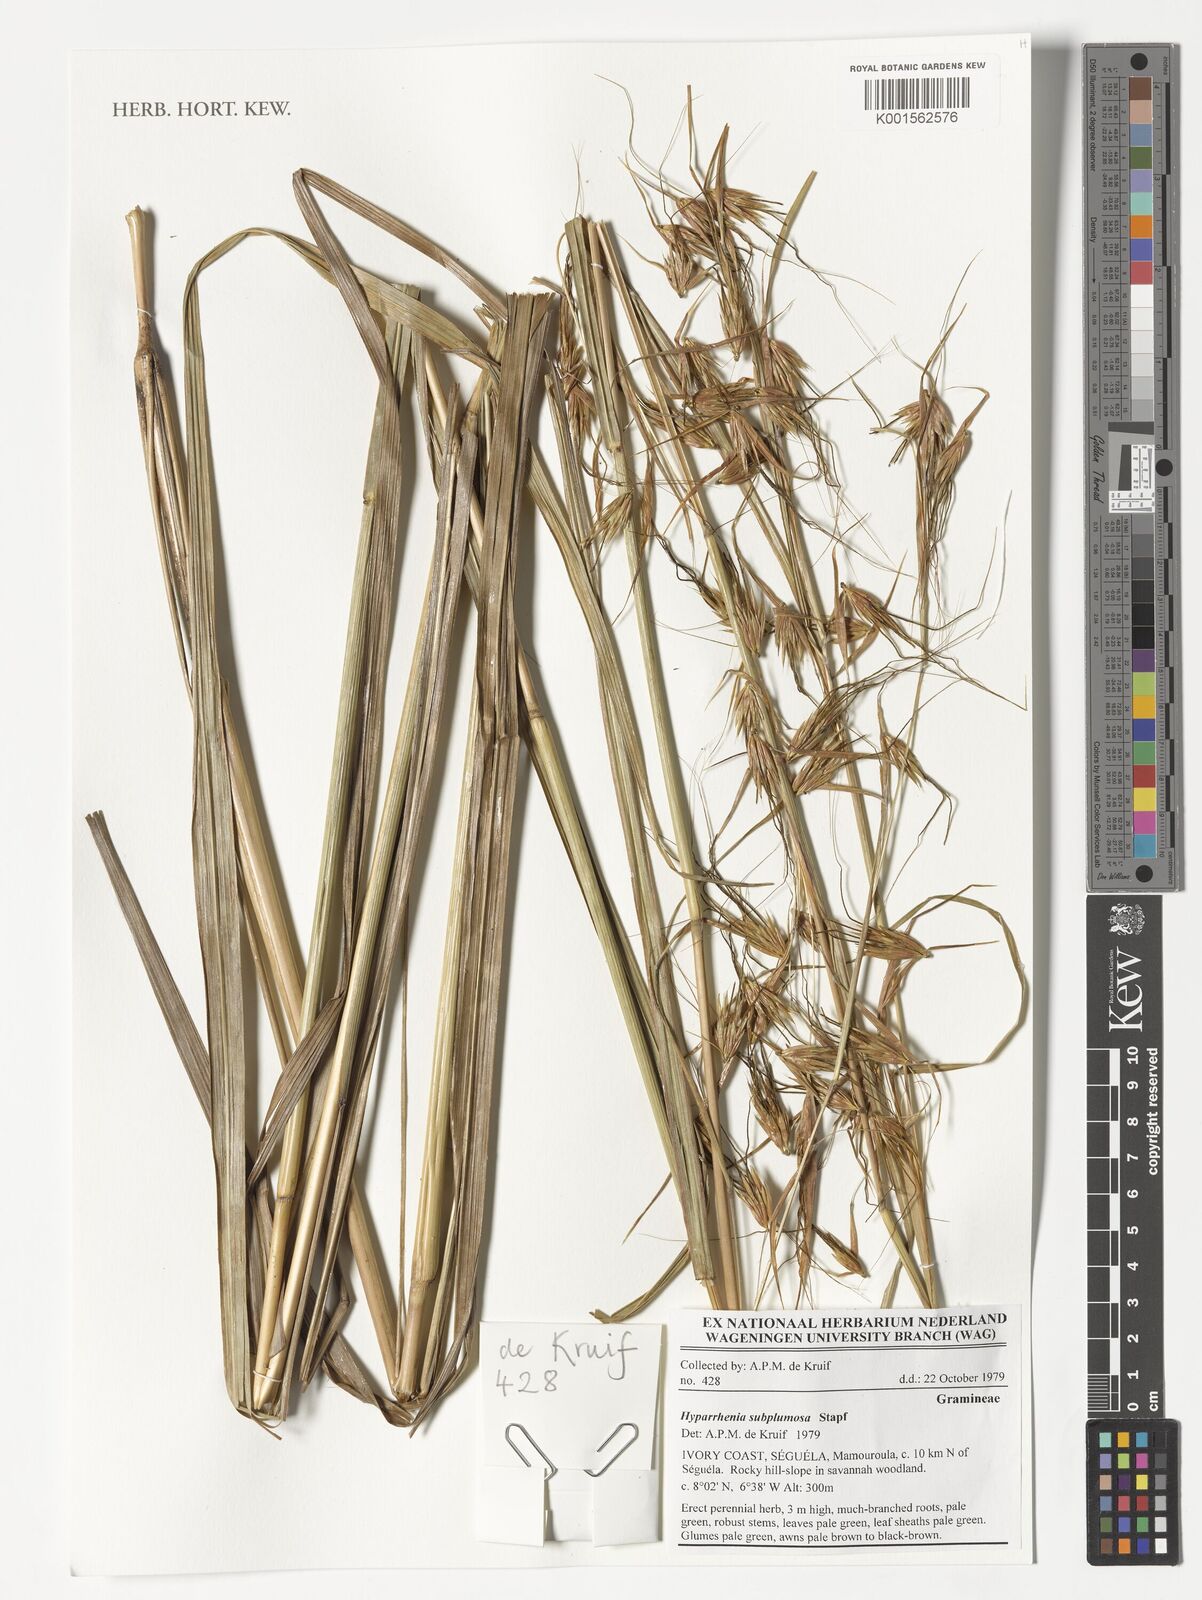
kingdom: Plantae
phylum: Tracheophyta
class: Liliopsida
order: Poales
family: Poaceae
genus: Hyparrhenia
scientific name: Hyparrhenia subplumosa
